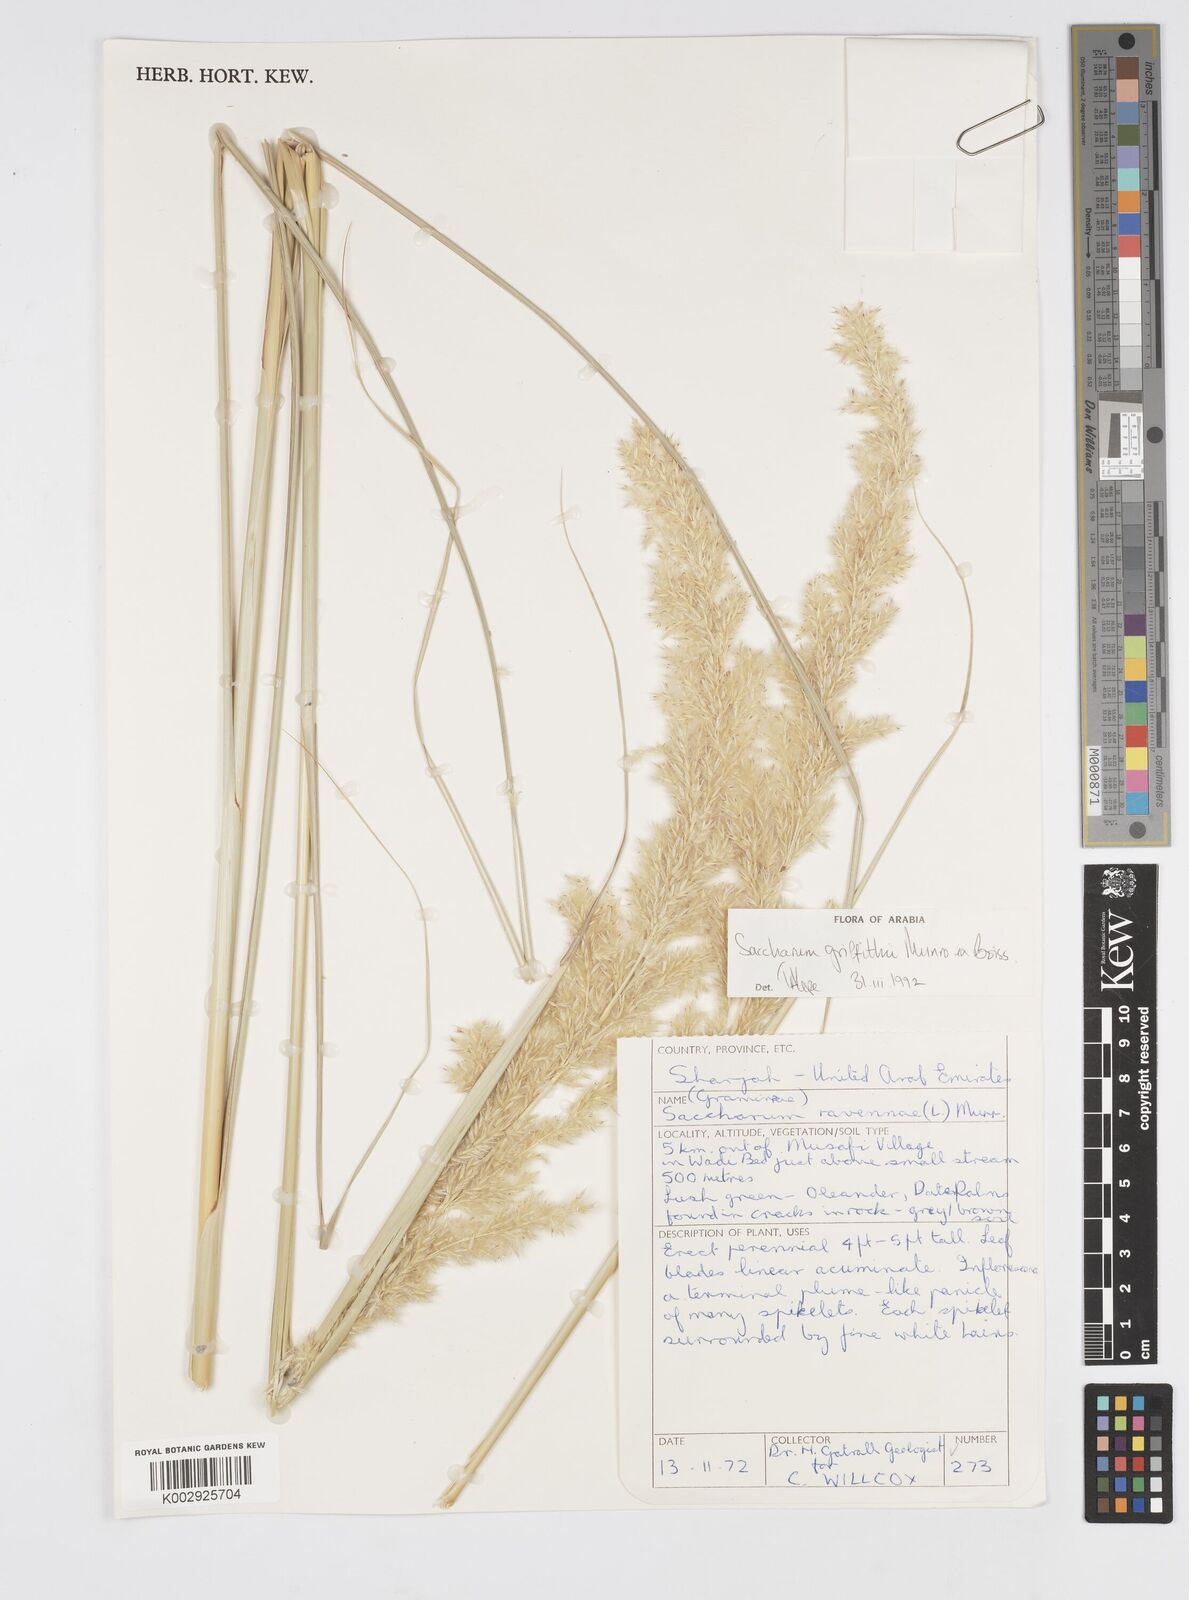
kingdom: Plantae
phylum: Tracheophyta
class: Liliopsida
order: Poales
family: Poaceae
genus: Saccharum
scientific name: Saccharum griffithii
